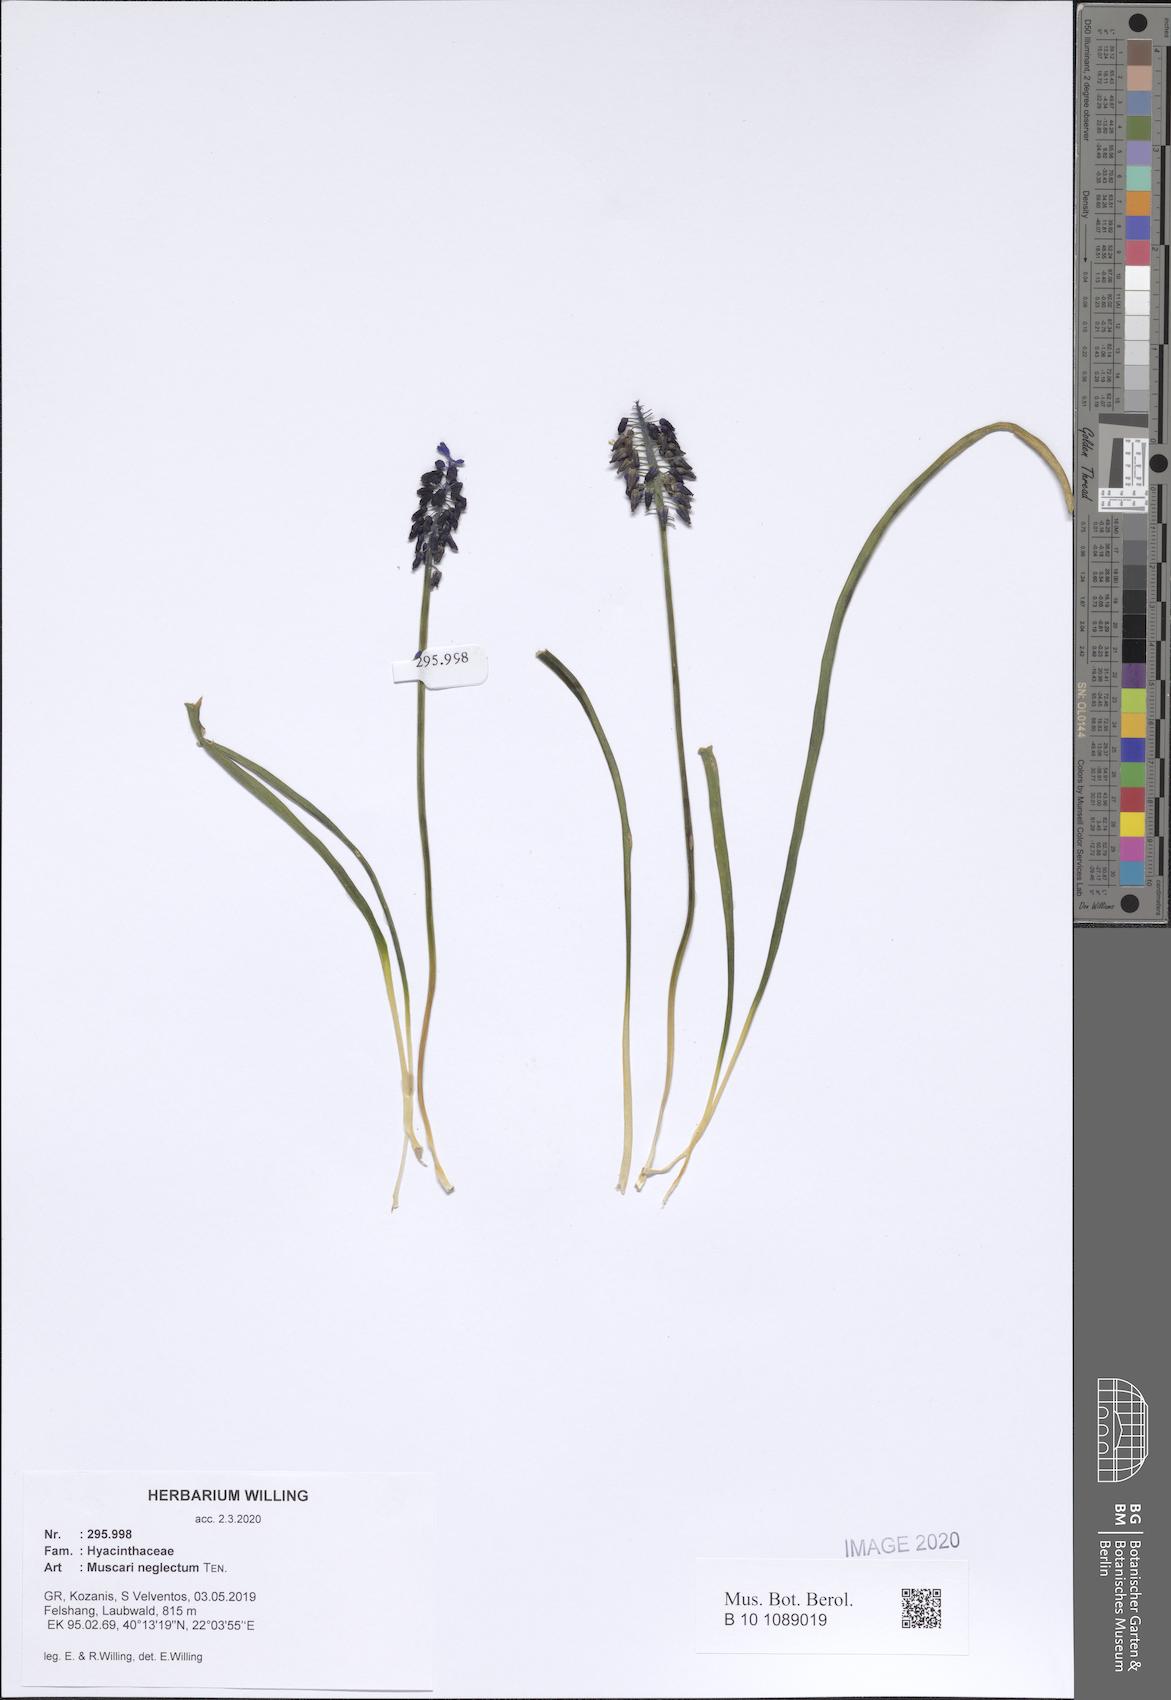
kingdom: Plantae
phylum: Tracheophyta
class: Liliopsida
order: Asparagales
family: Asparagaceae
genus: Muscari
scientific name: Muscari neglectum
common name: Grape-hyacinth
